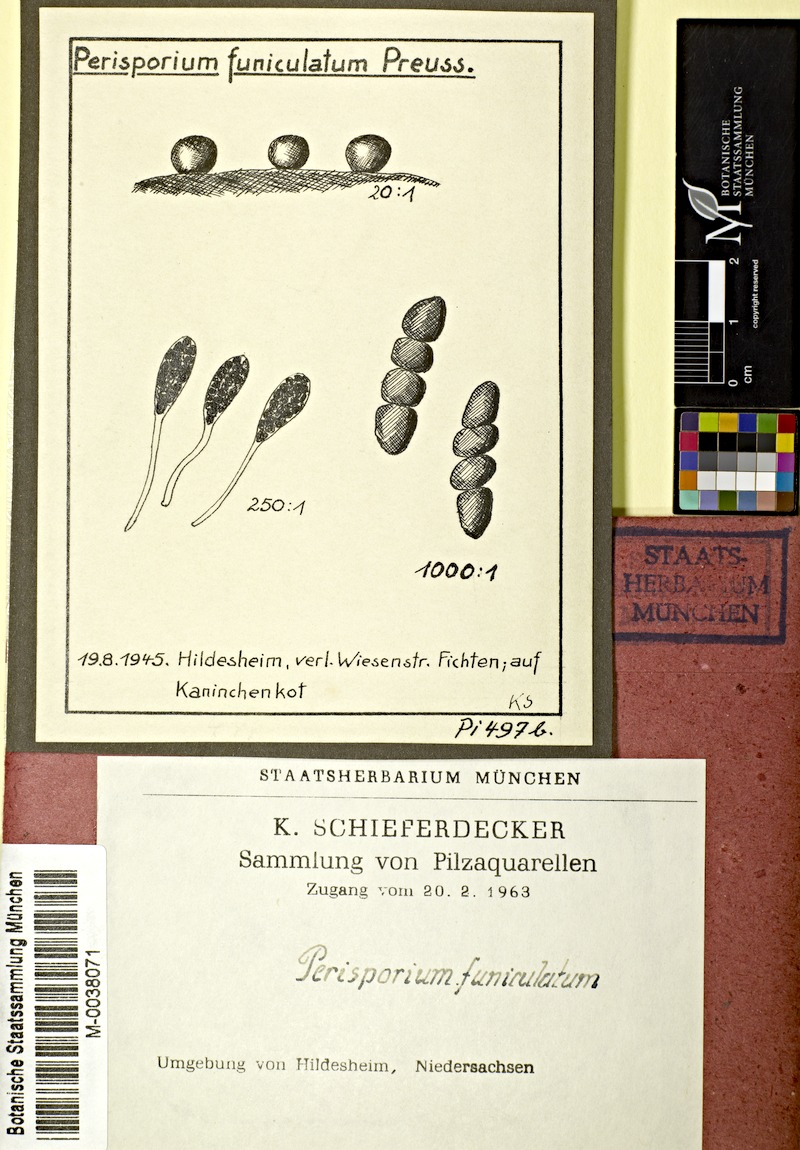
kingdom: Fungi
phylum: Ascomycota
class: Dothideomycetes
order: Pleosporales
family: Sporormiaceae
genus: Preussia
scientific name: Preussia funiculata
